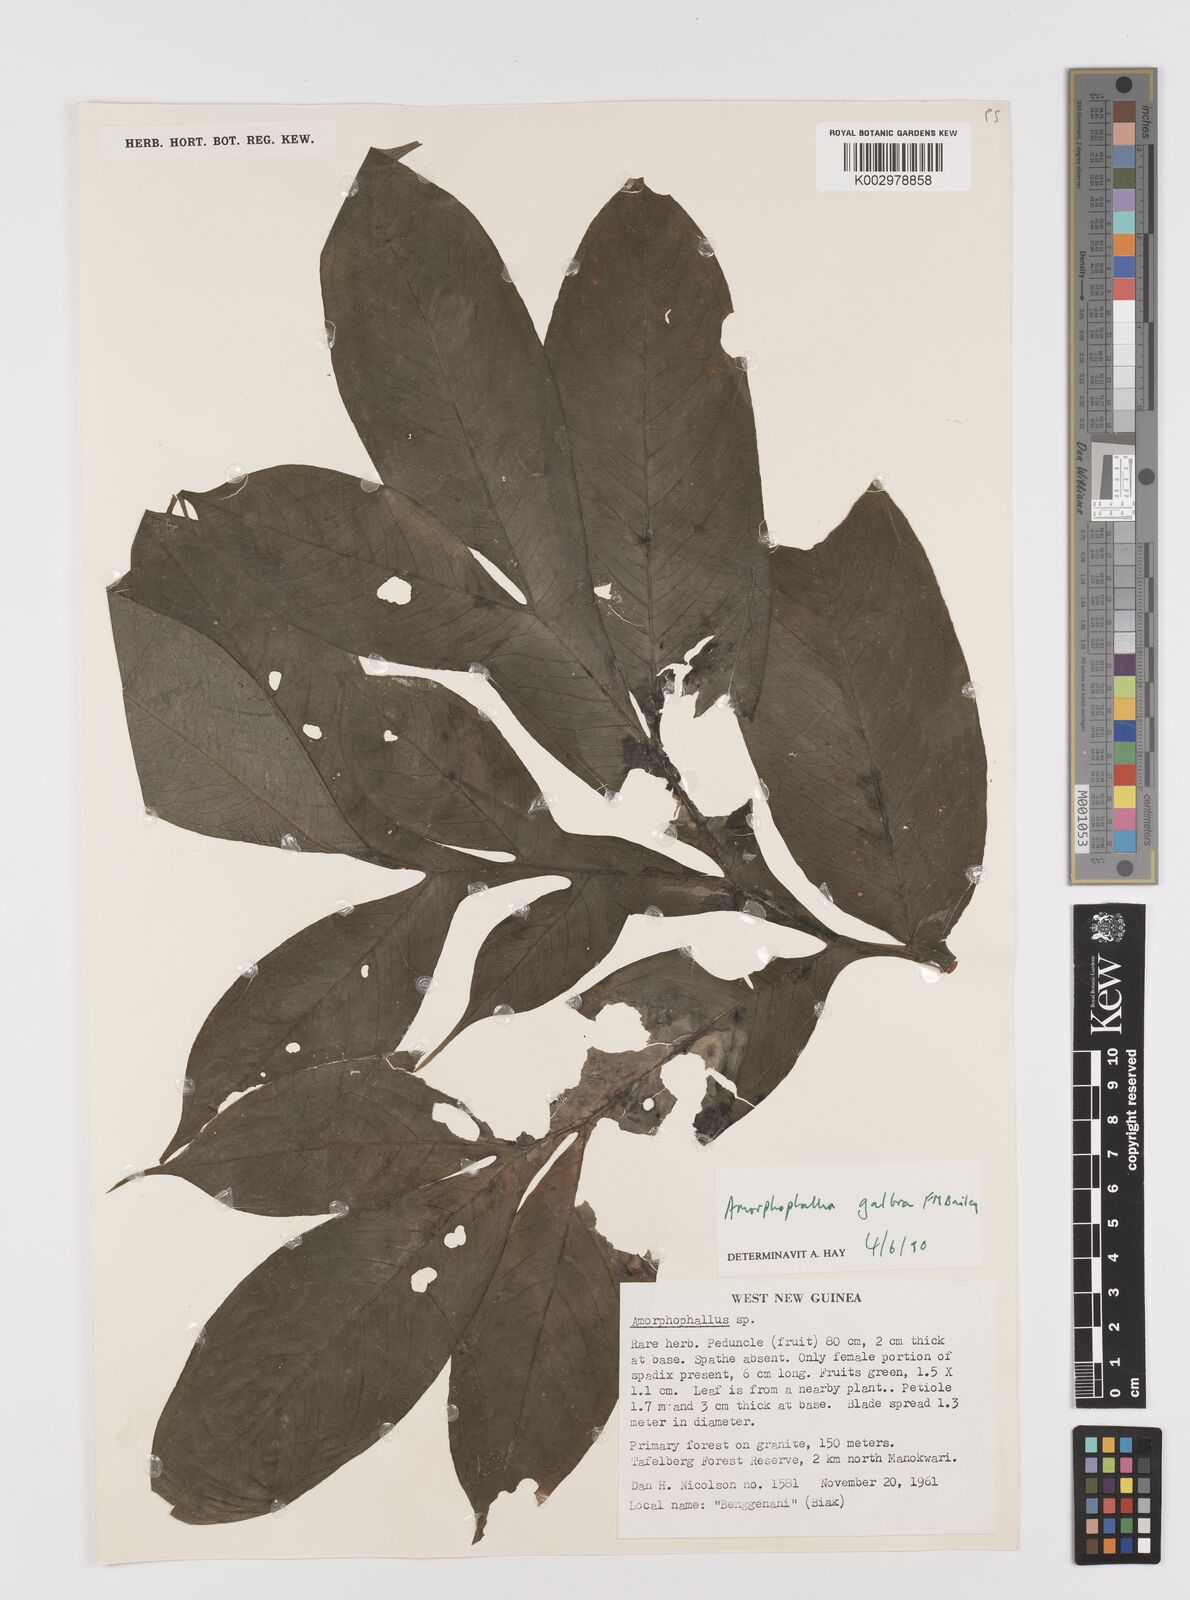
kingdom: Plantae
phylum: Tracheophyta
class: Liliopsida
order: Alismatales
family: Araceae
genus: Amorphophallus
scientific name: Amorphophallus galbra
